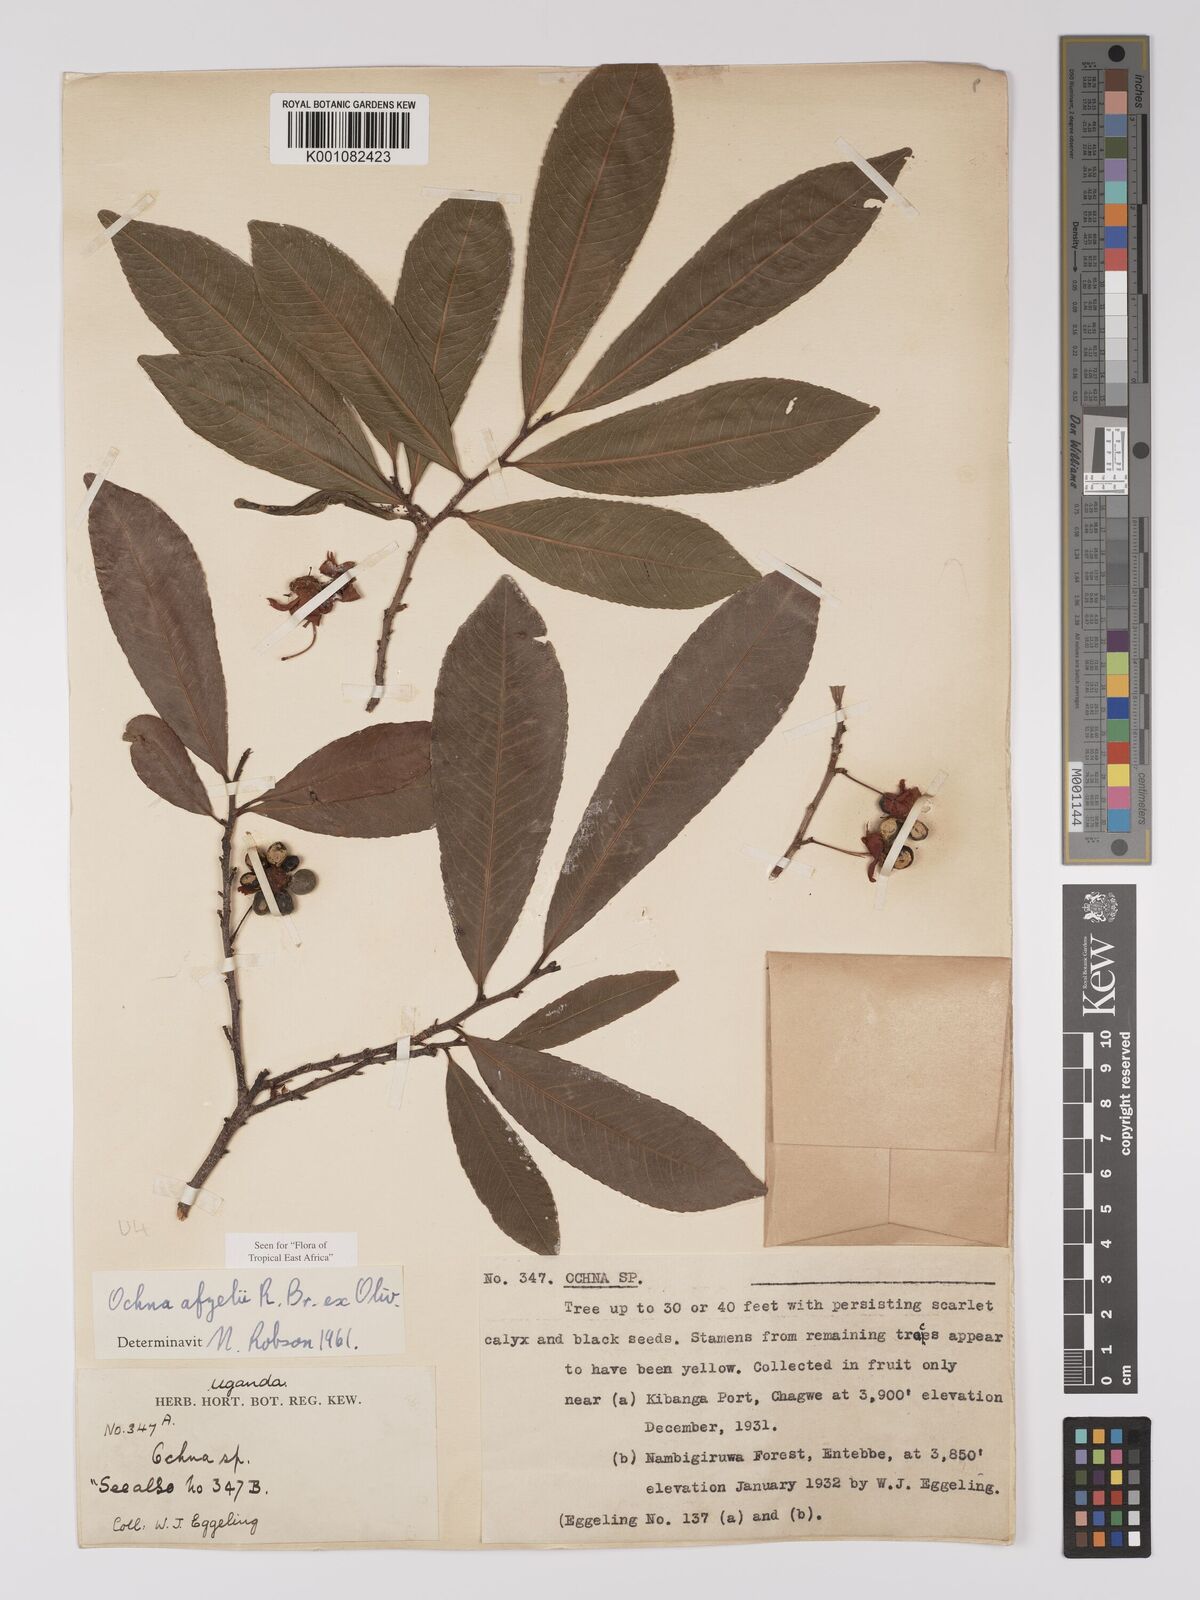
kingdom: Plantae
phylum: Tracheophyta
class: Magnoliopsida
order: Malpighiales
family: Ochnaceae
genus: Ochna
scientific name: Ochna afzelii
